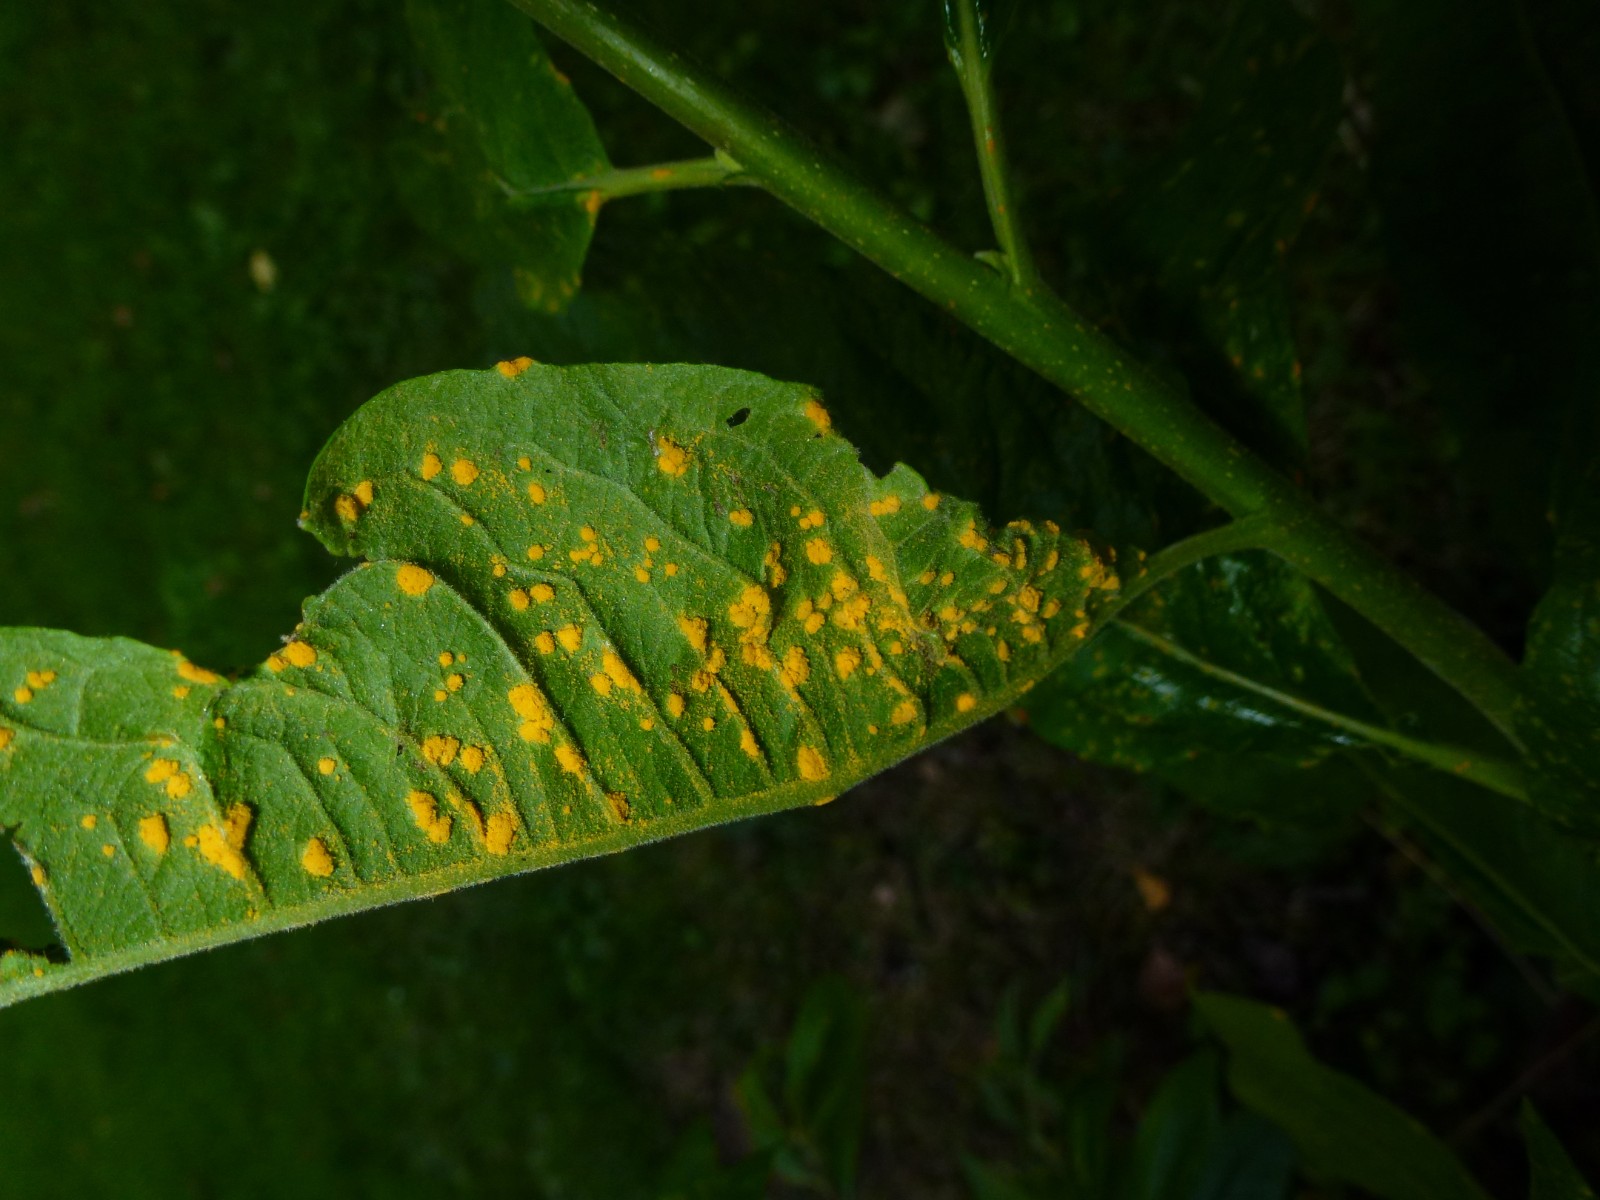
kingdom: Fungi
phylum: Basidiomycota
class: Pucciniomycetes
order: Pucciniales
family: Melampsoraceae
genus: Melampsora
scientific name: Melampsora epitea
